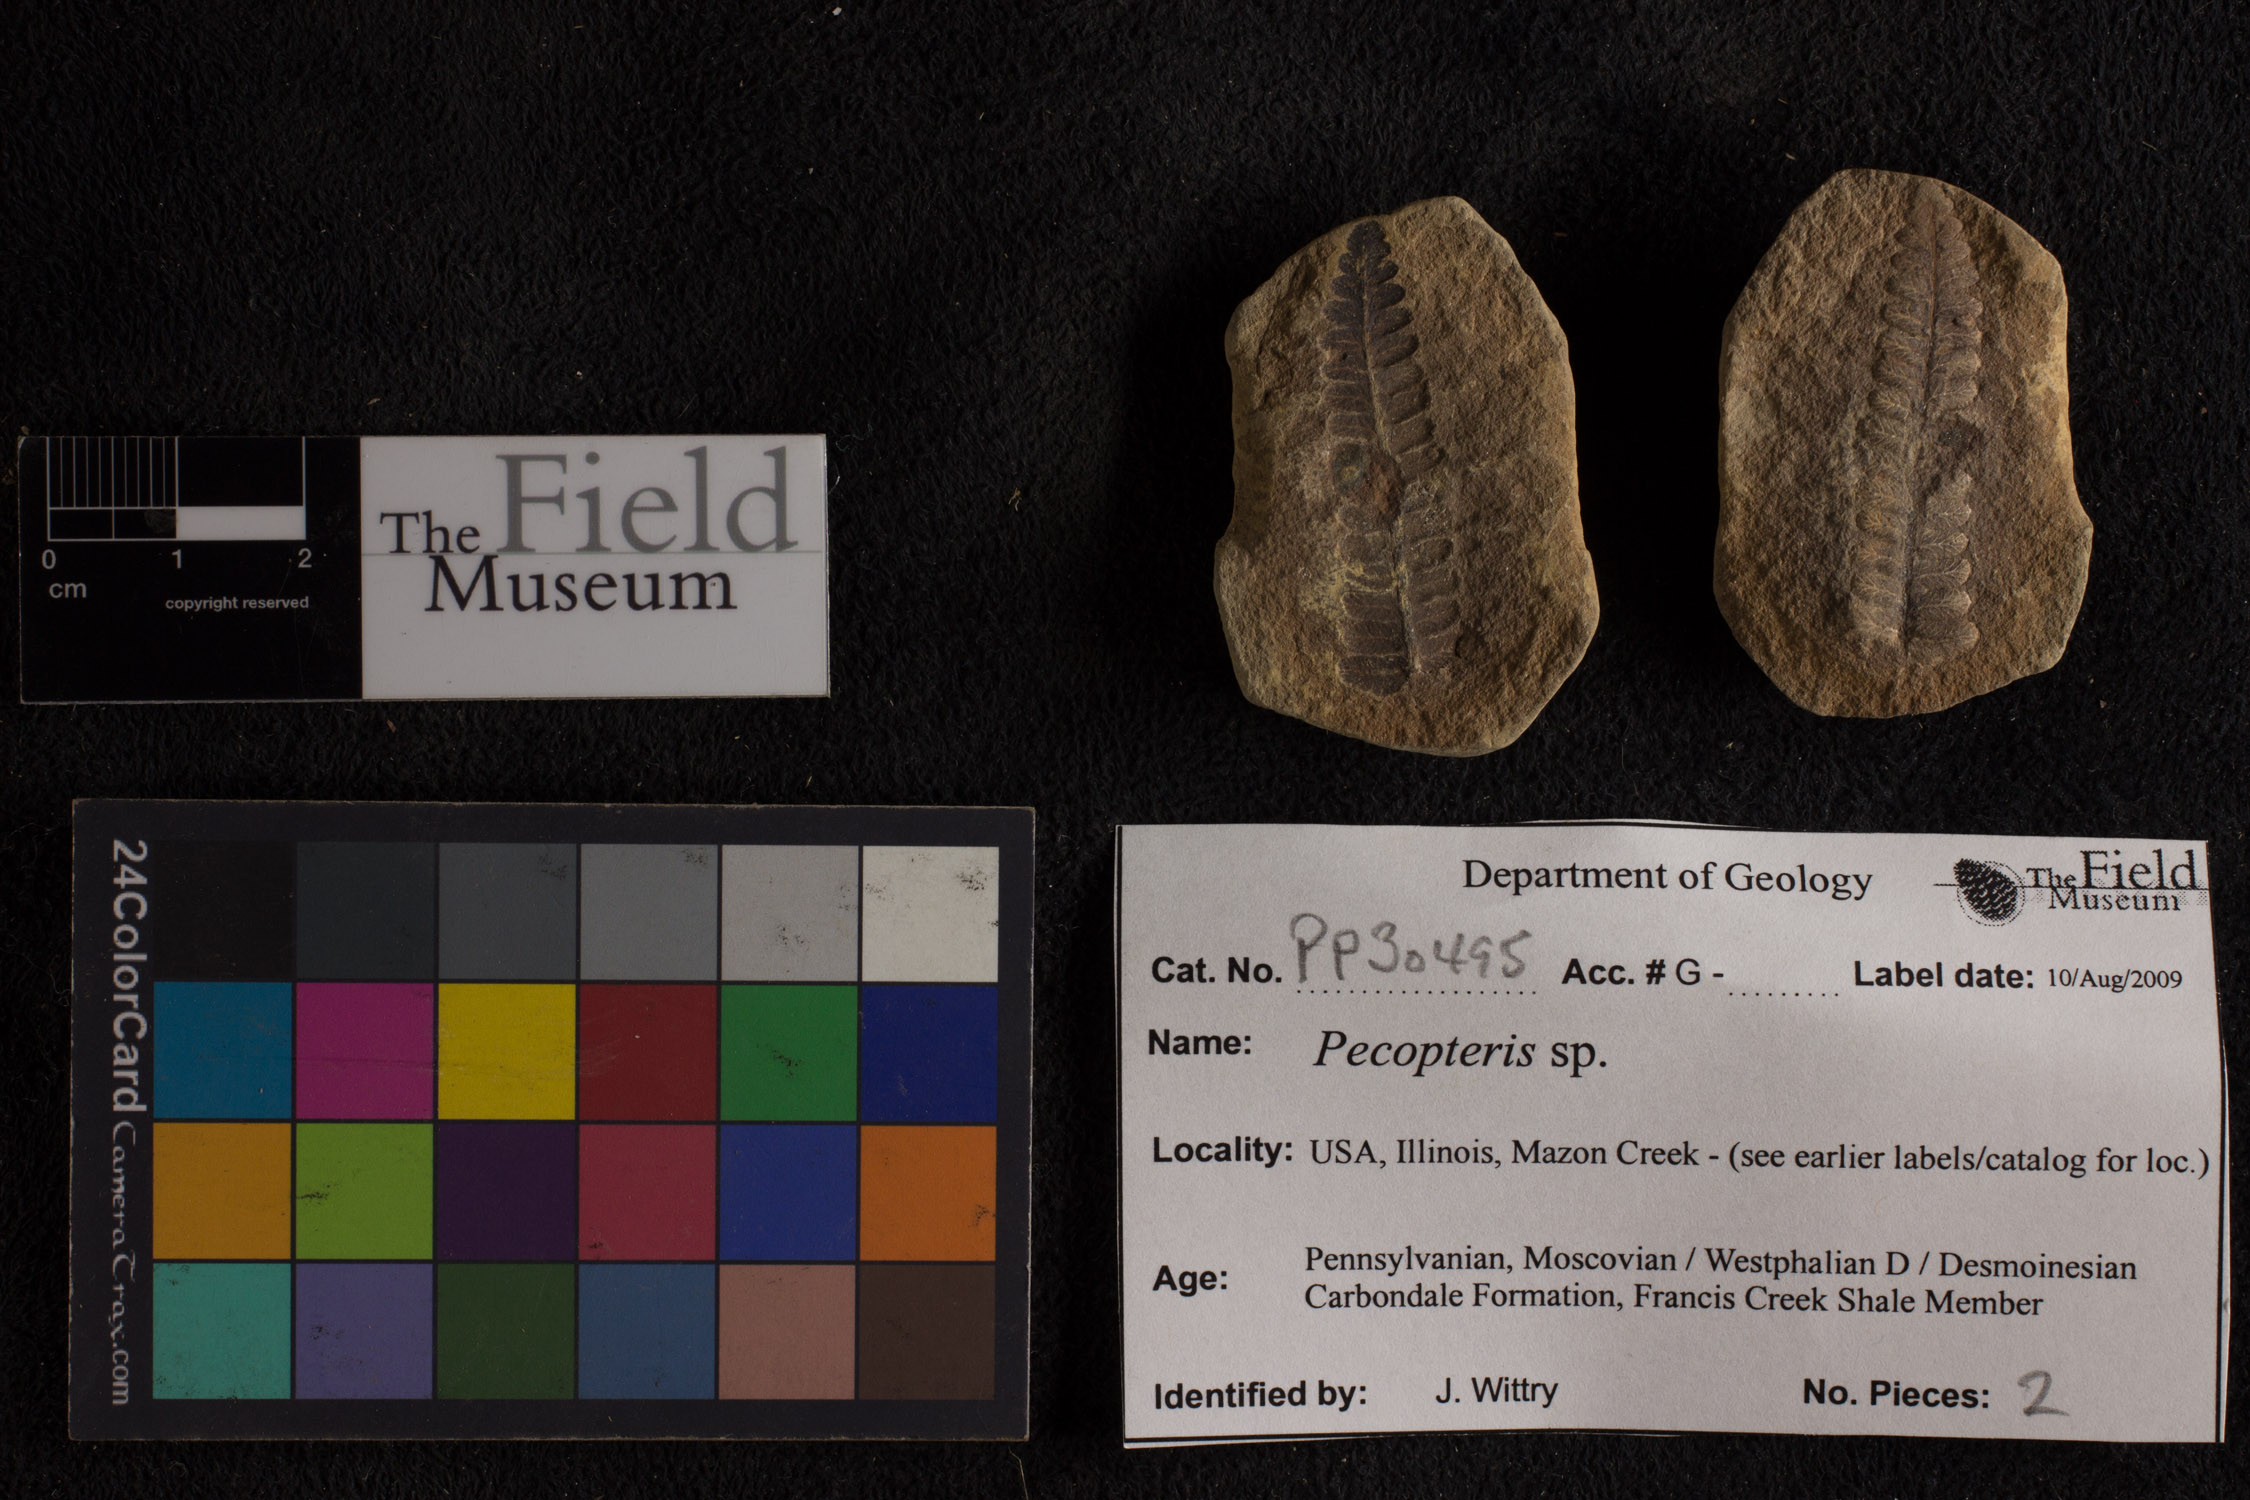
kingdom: Plantae
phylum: Tracheophyta
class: Polypodiopsida
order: Marattiales
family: Asterothecaceae
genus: Pecopteris
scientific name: Pecopteris
